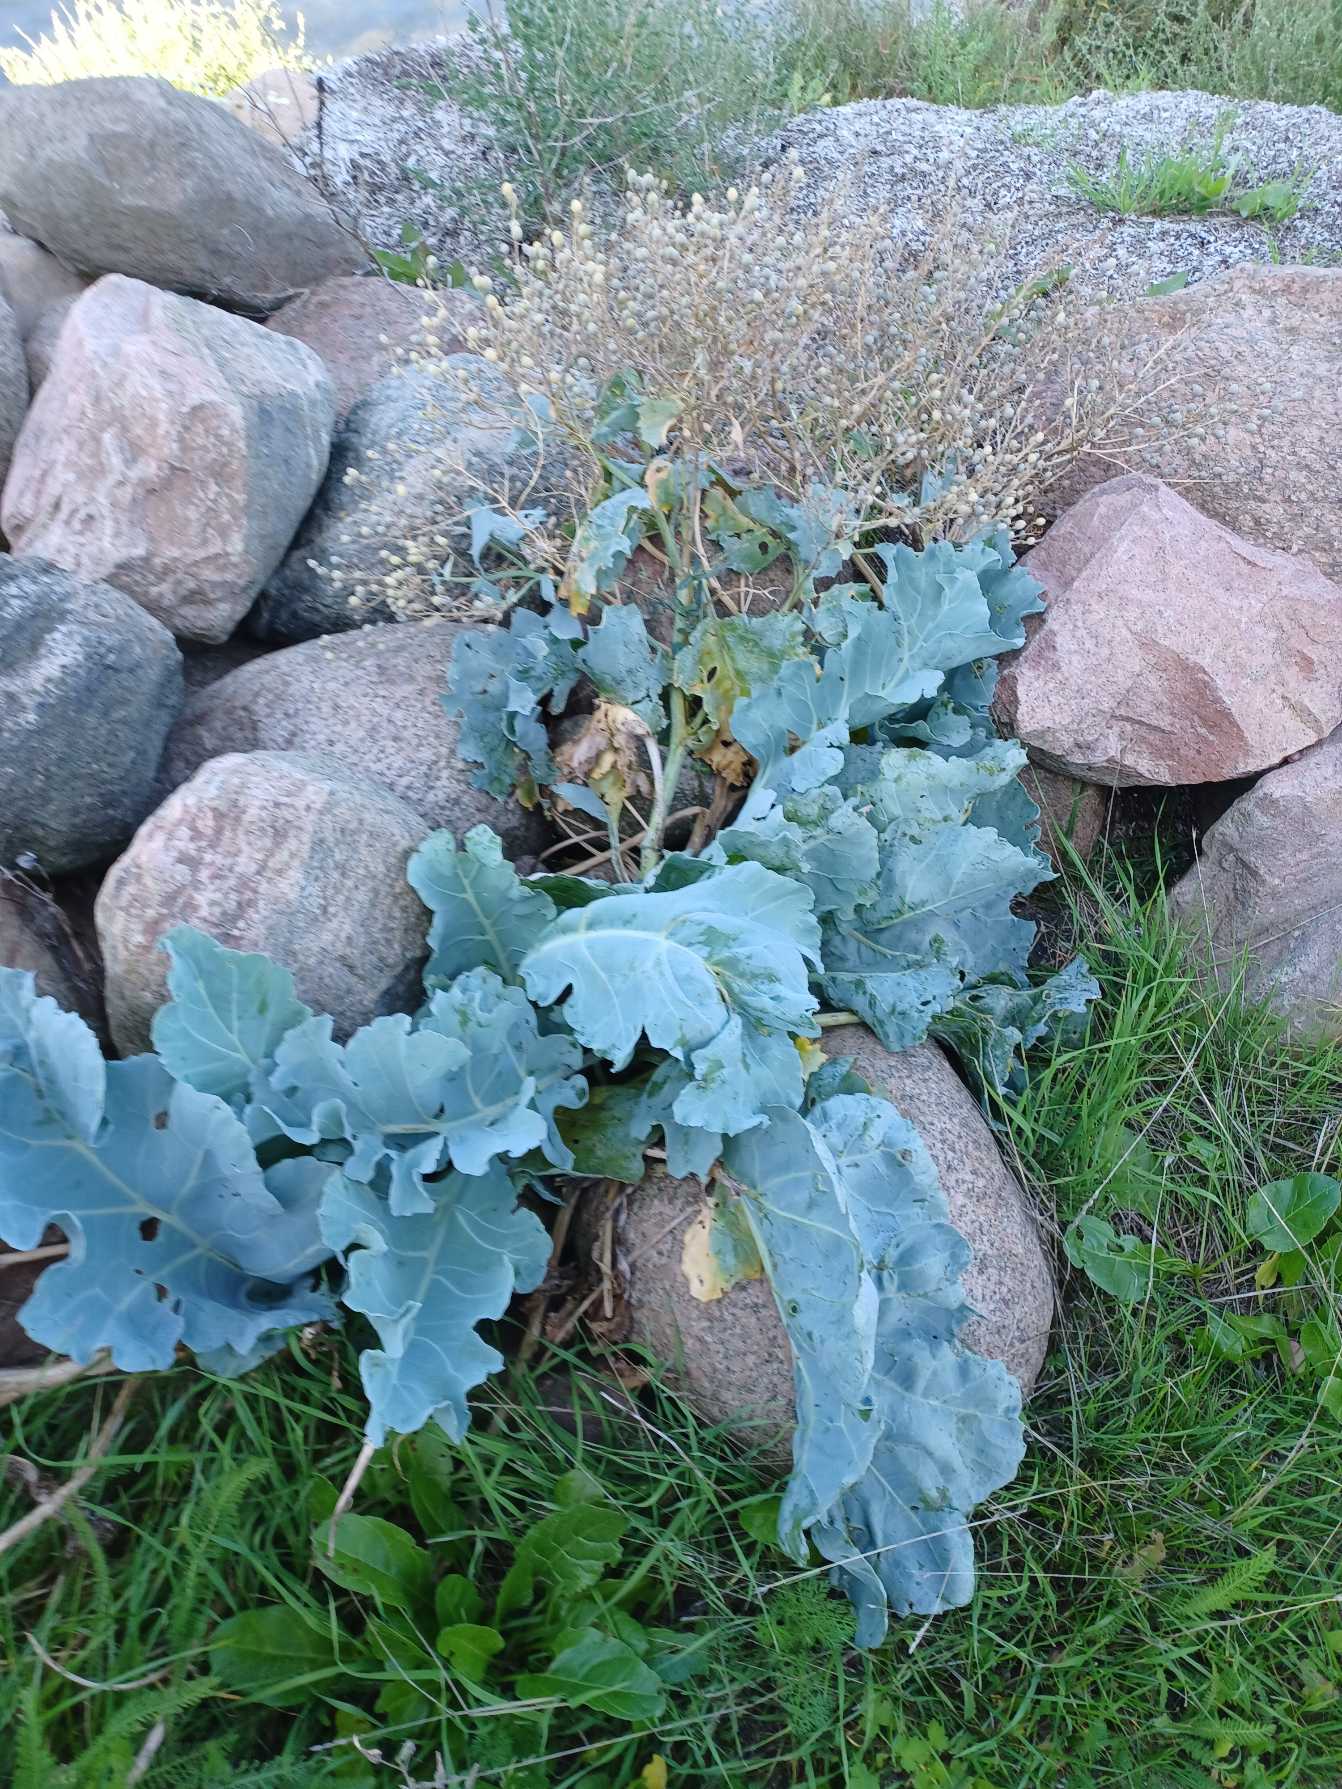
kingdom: Plantae
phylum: Tracheophyta
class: Magnoliopsida
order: Brassicales
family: Brassicaceae
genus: Crambe
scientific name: Crambe maritima
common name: Strandkål
